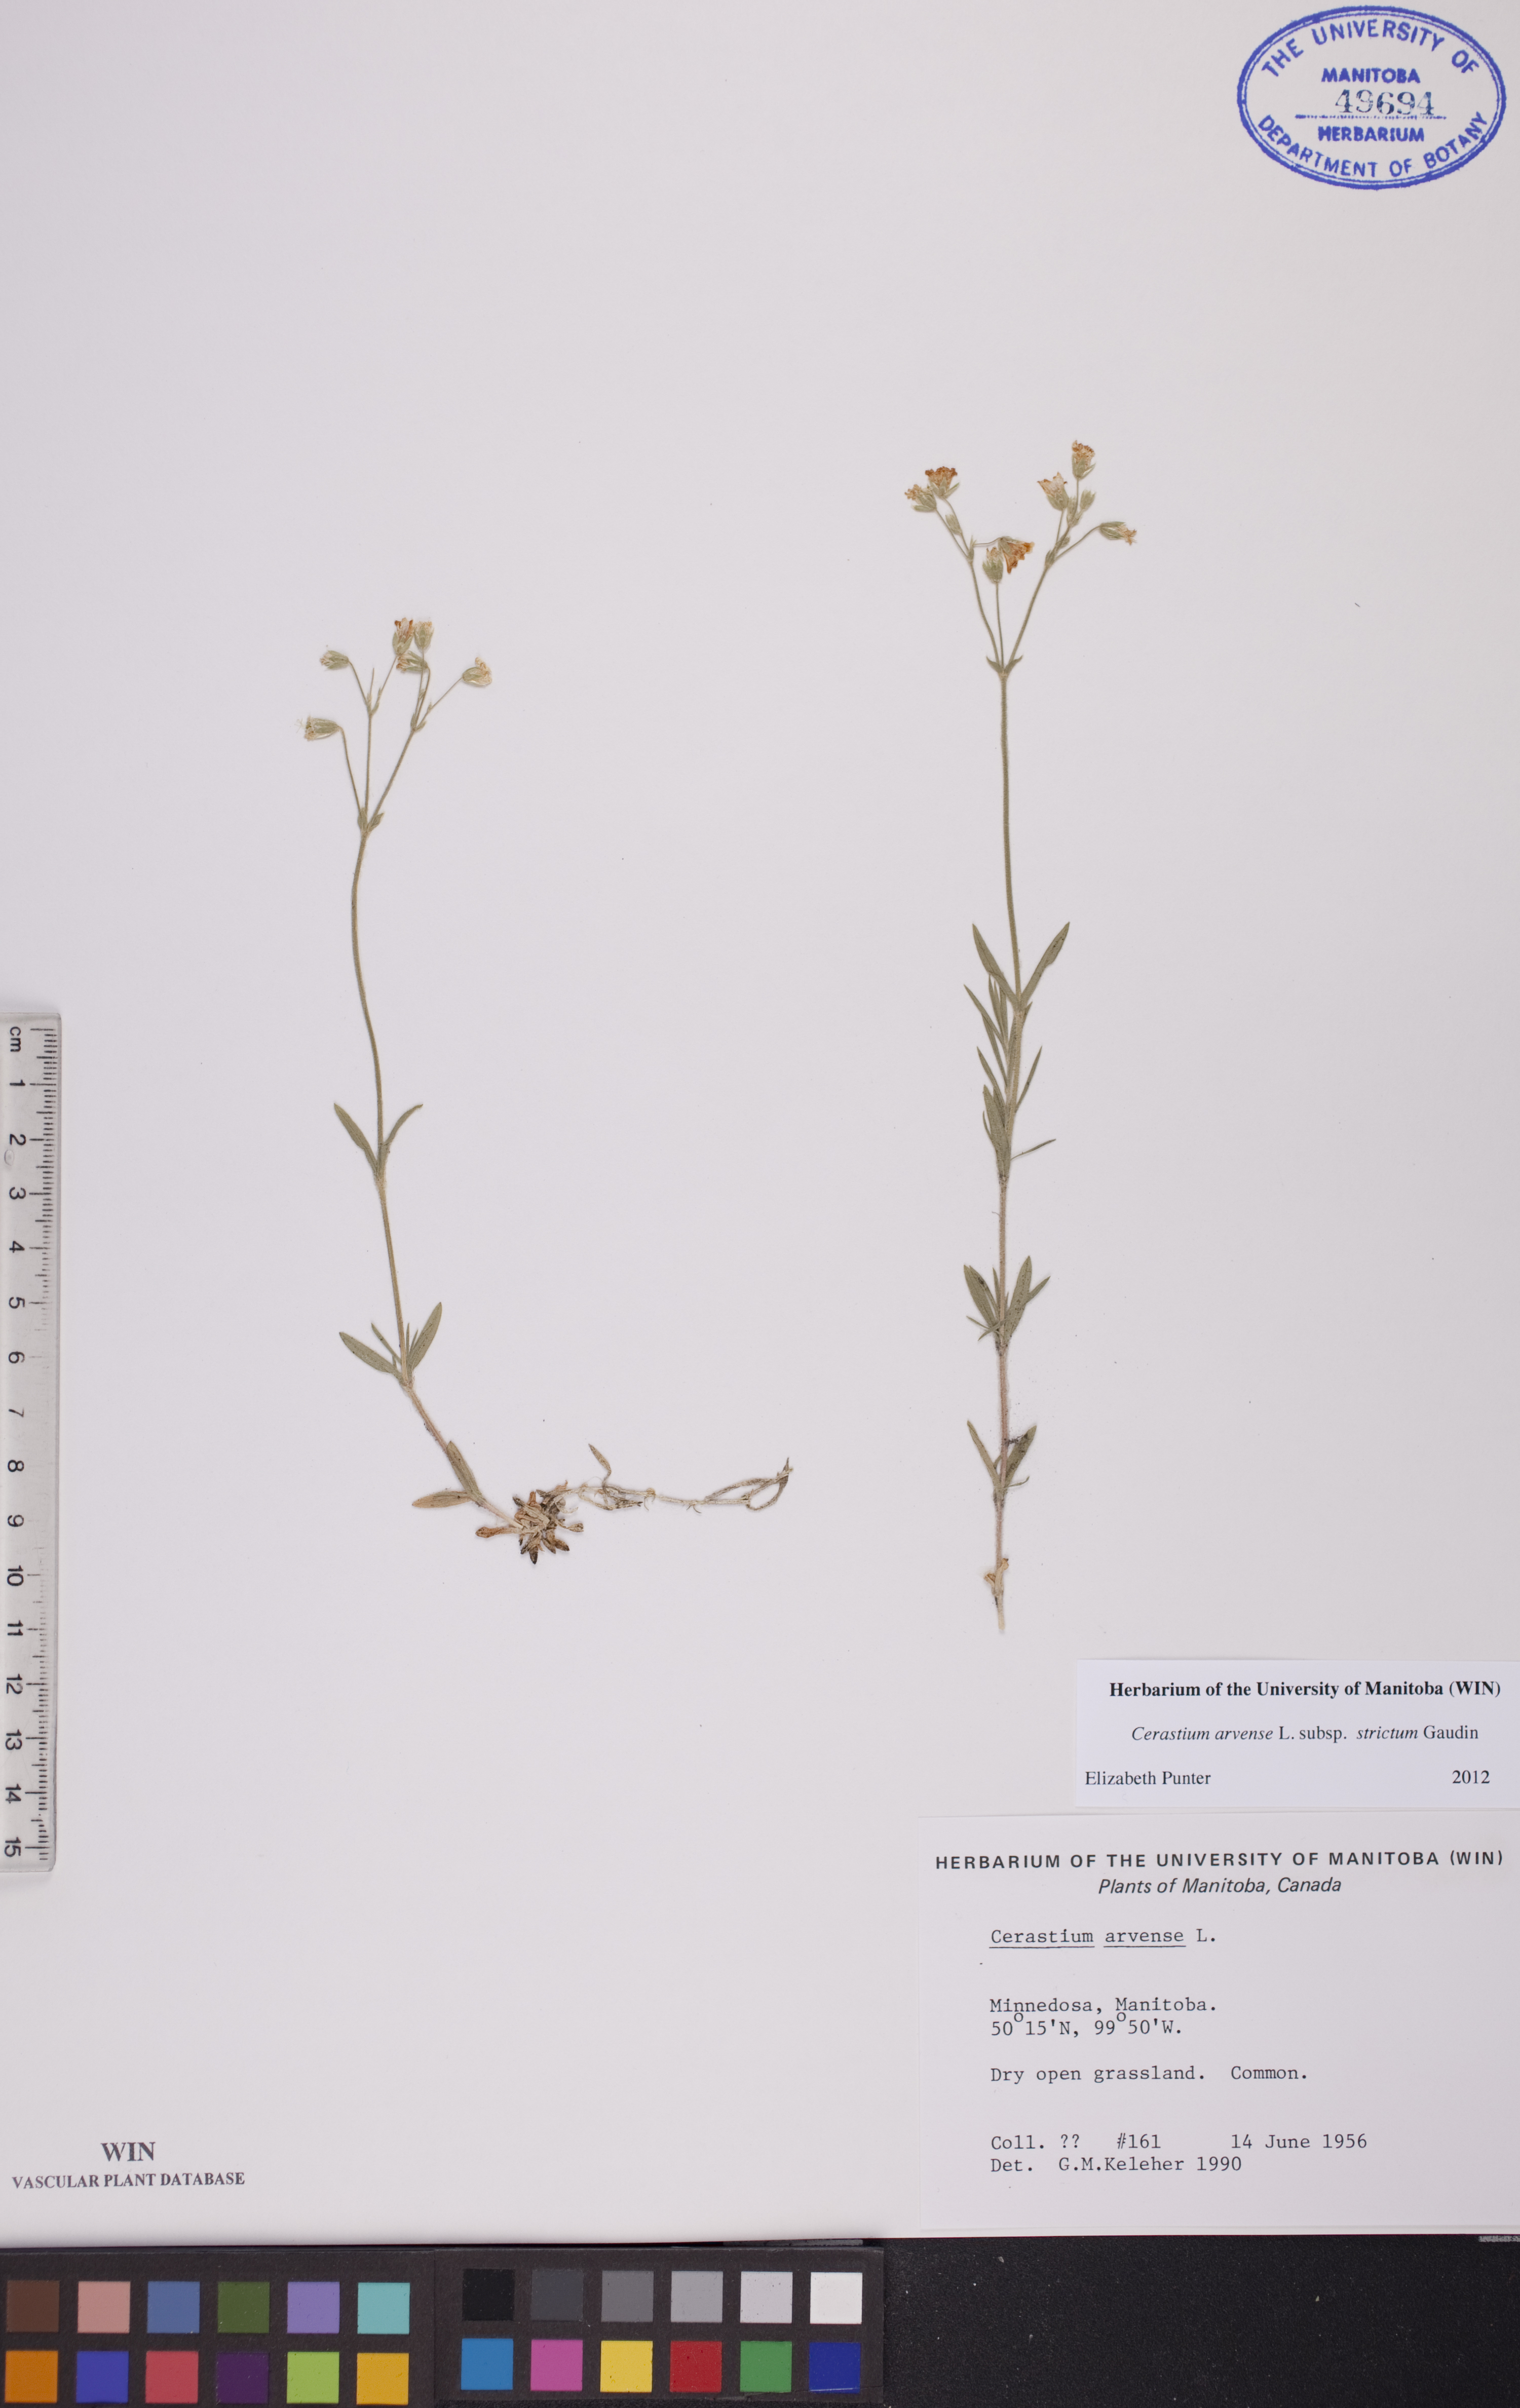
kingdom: Plantae
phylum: Tracheophyta
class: Magnoliopsida
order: Caryophyllales
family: Caryophyllaceae
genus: Cerastium
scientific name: Cerastium elongatum
